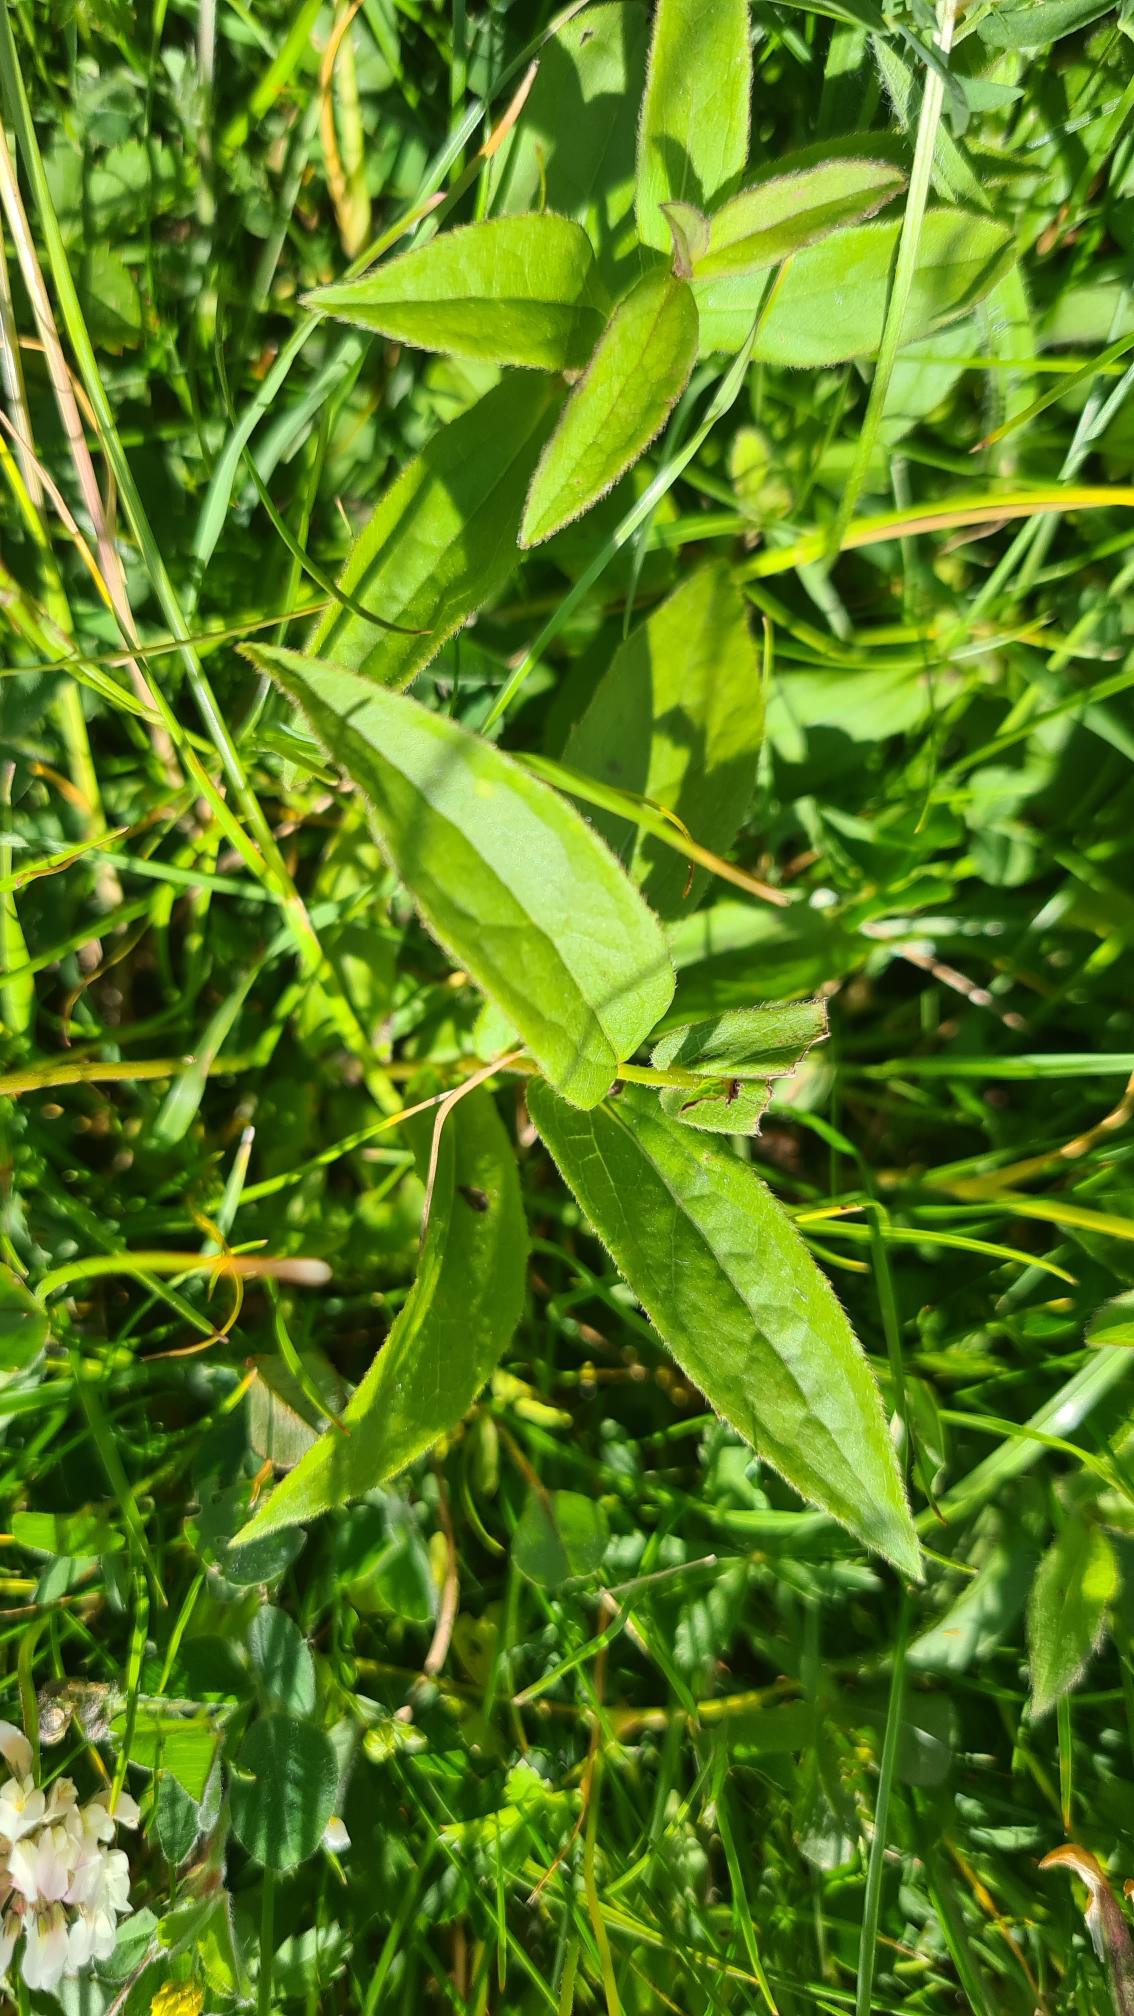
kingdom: Plantae
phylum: Tracheophyta
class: Magnoliopsida
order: Asterales
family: Asteraceae
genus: Pentanema
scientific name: Pentanema salicinum
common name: Pile-alant
